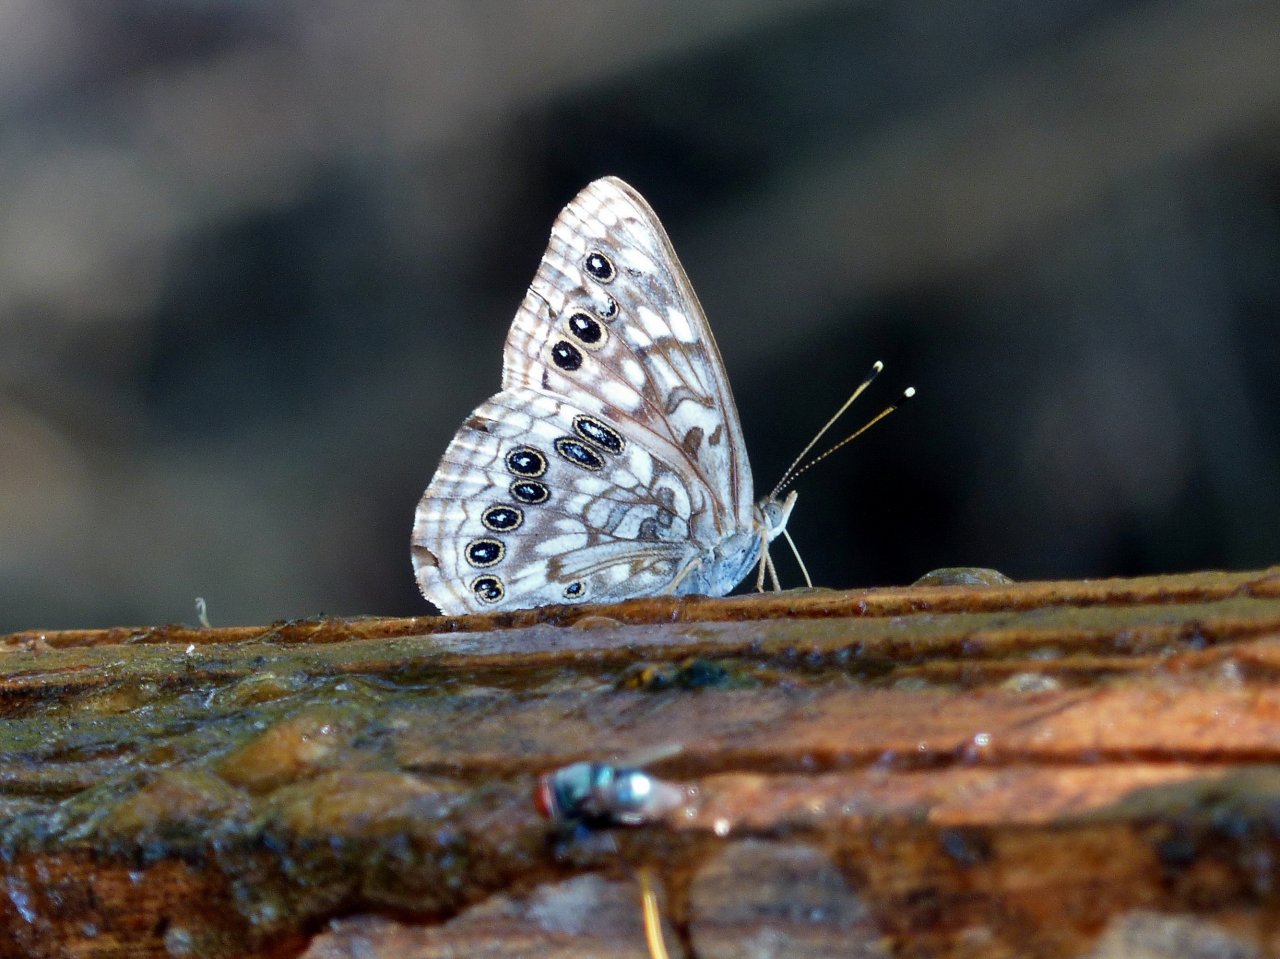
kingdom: Animalia
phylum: Arthropoda
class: Insecta
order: Lepidoptera
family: Nymphalidae
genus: Asterocampa
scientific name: Asterocampa celtis
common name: Hackberry Emperor
